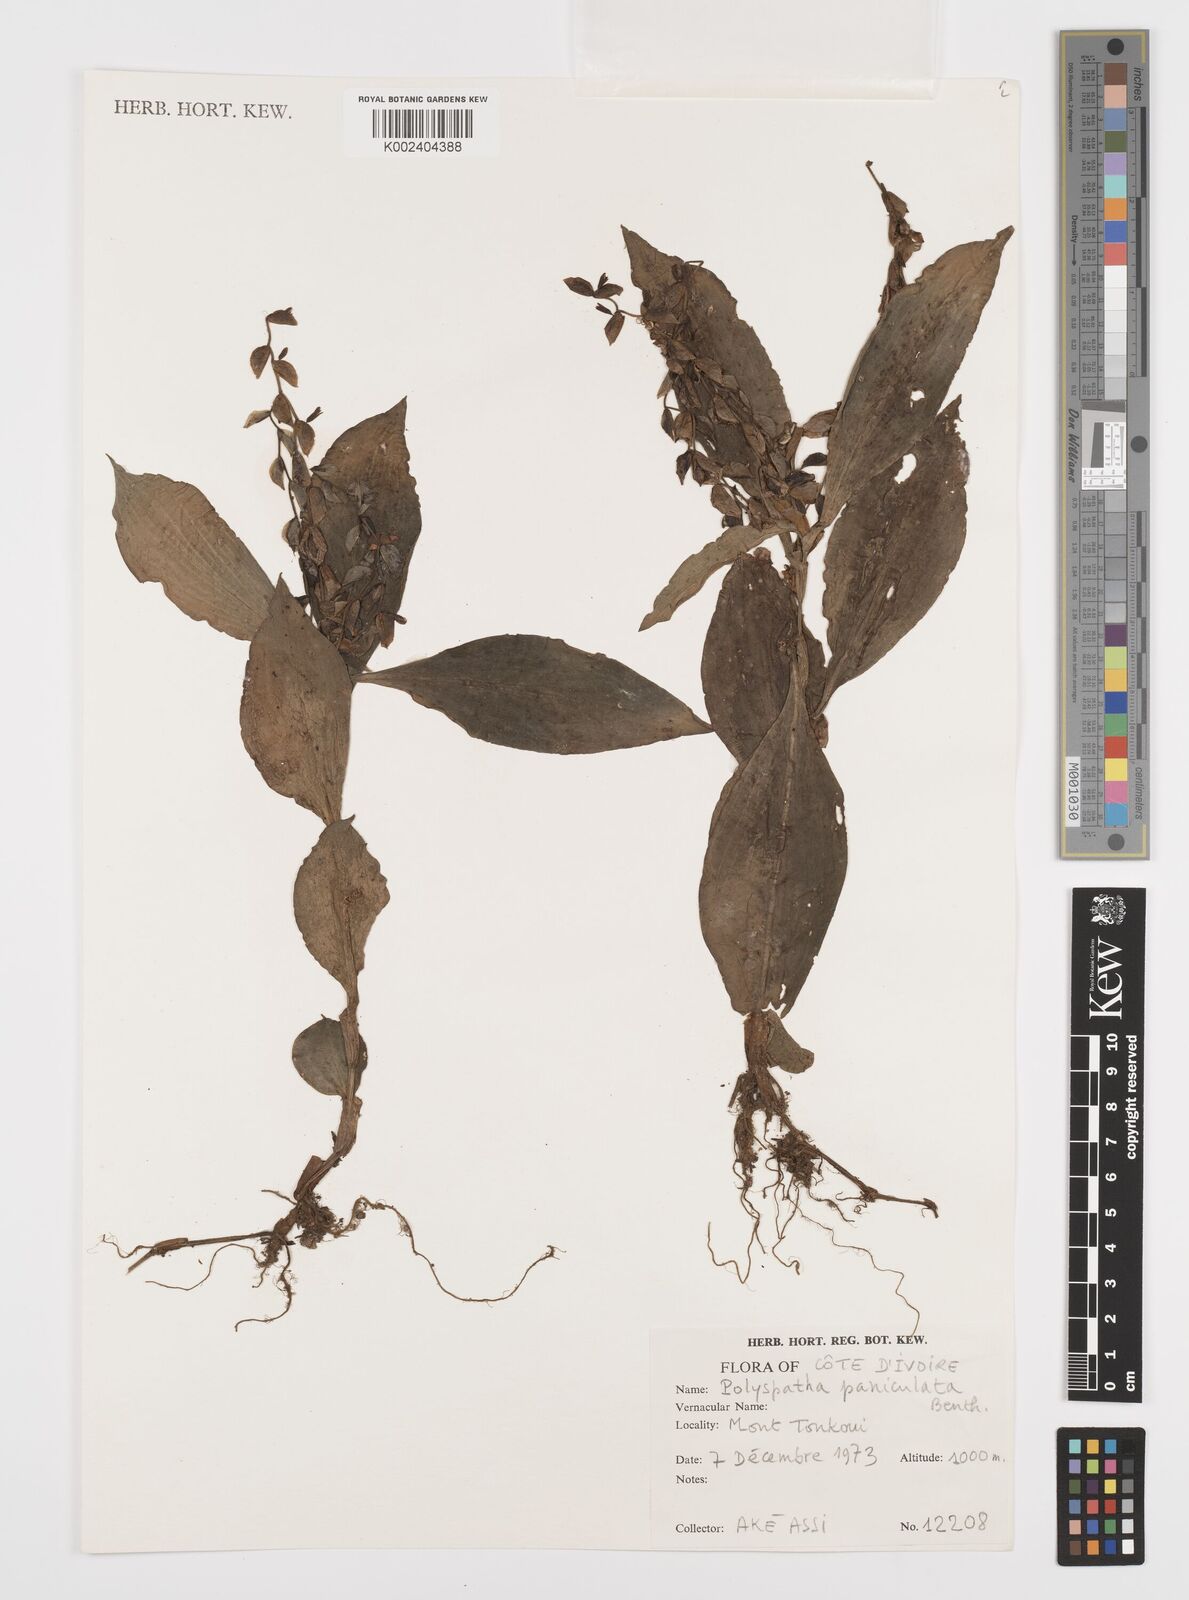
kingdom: Plantae
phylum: Tracheophyta
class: Liliopsida
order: Commelinales
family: Commelinaceae
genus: Polyspatha
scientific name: Polyspatha paniculata
